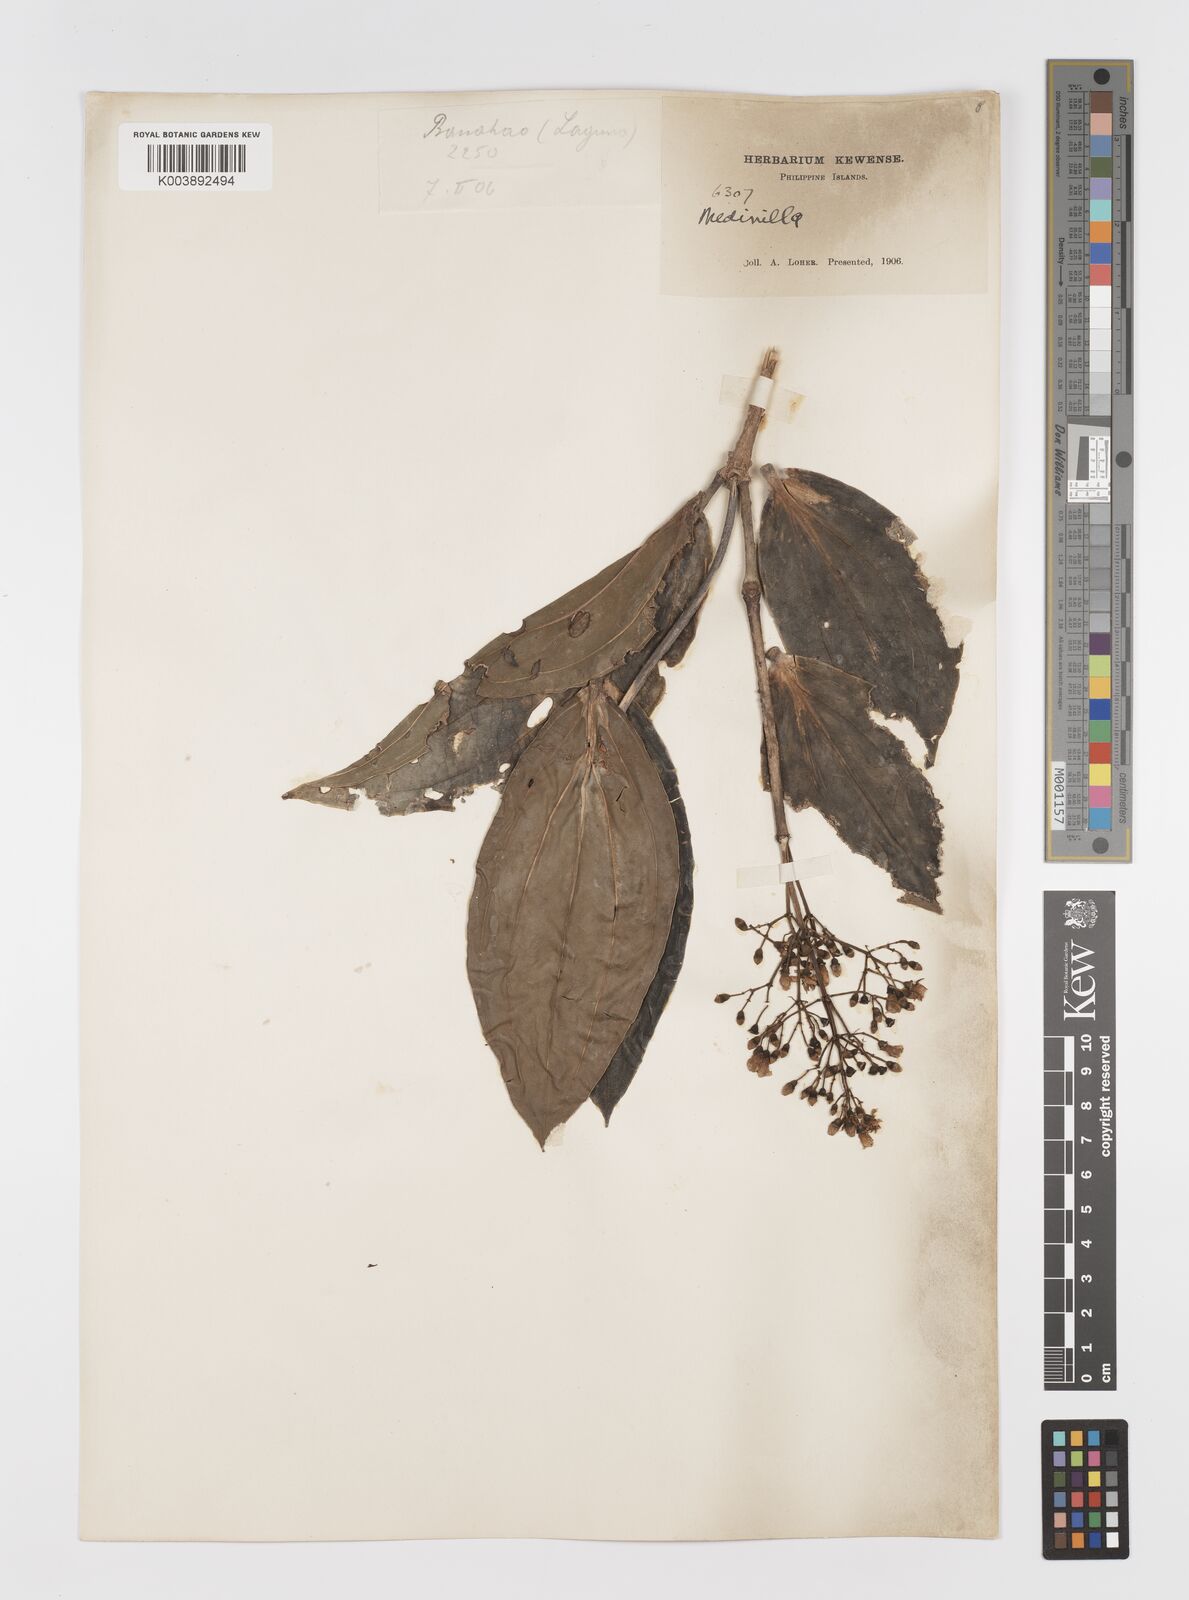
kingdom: Plantae
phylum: Tracheophyta
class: Magnoliopsida
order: Myrtales
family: Melastomataceae
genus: Medinilla
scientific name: Medinilla multiflora
